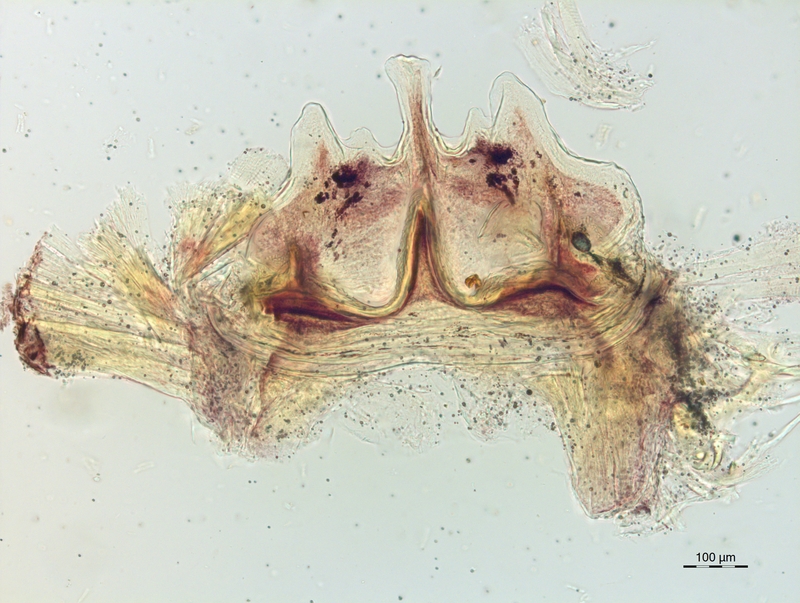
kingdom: Animalia
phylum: Arthropoda
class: Diplopoda
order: Chordeumatida
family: Craspedosomatidae
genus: Craspedosoma
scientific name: Craspedosoma alemannicum
